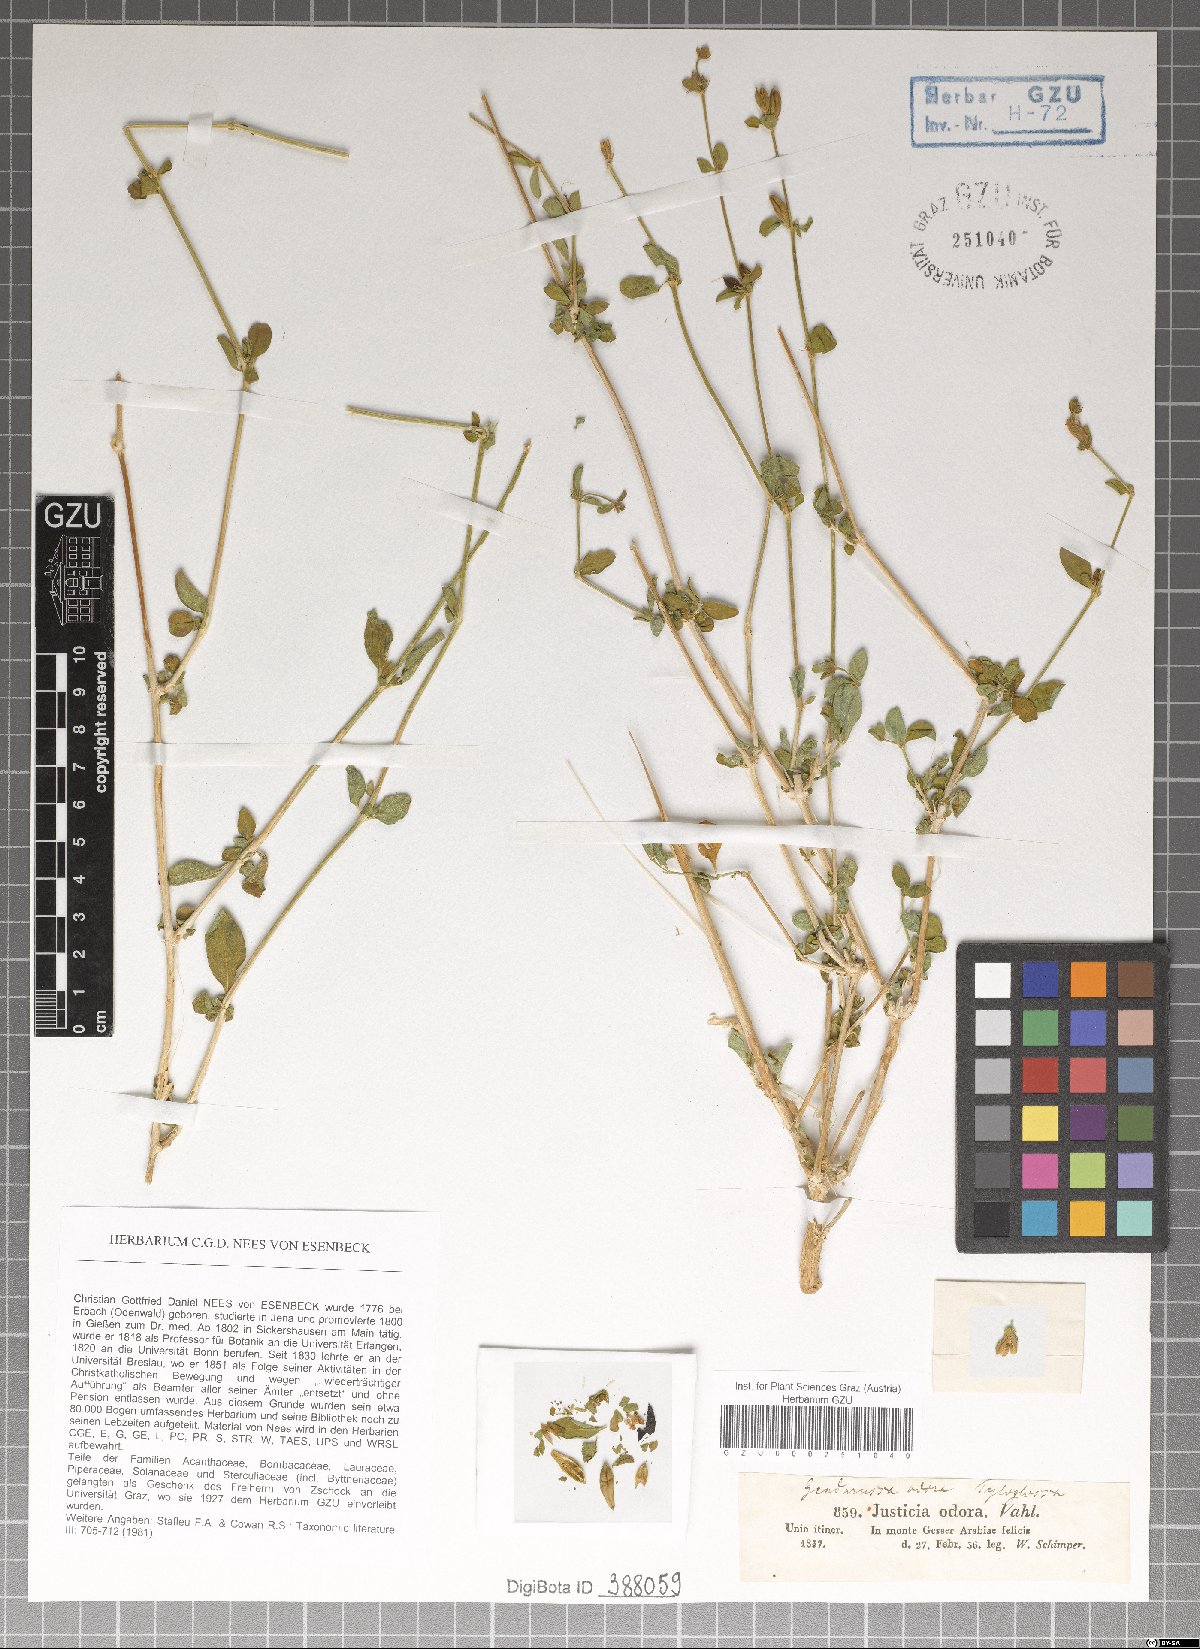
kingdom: Plantae
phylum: Tracheophyta
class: Magnoliopsida
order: Lamiales
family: Acanthaceae
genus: Justicia
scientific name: Justicia odora
